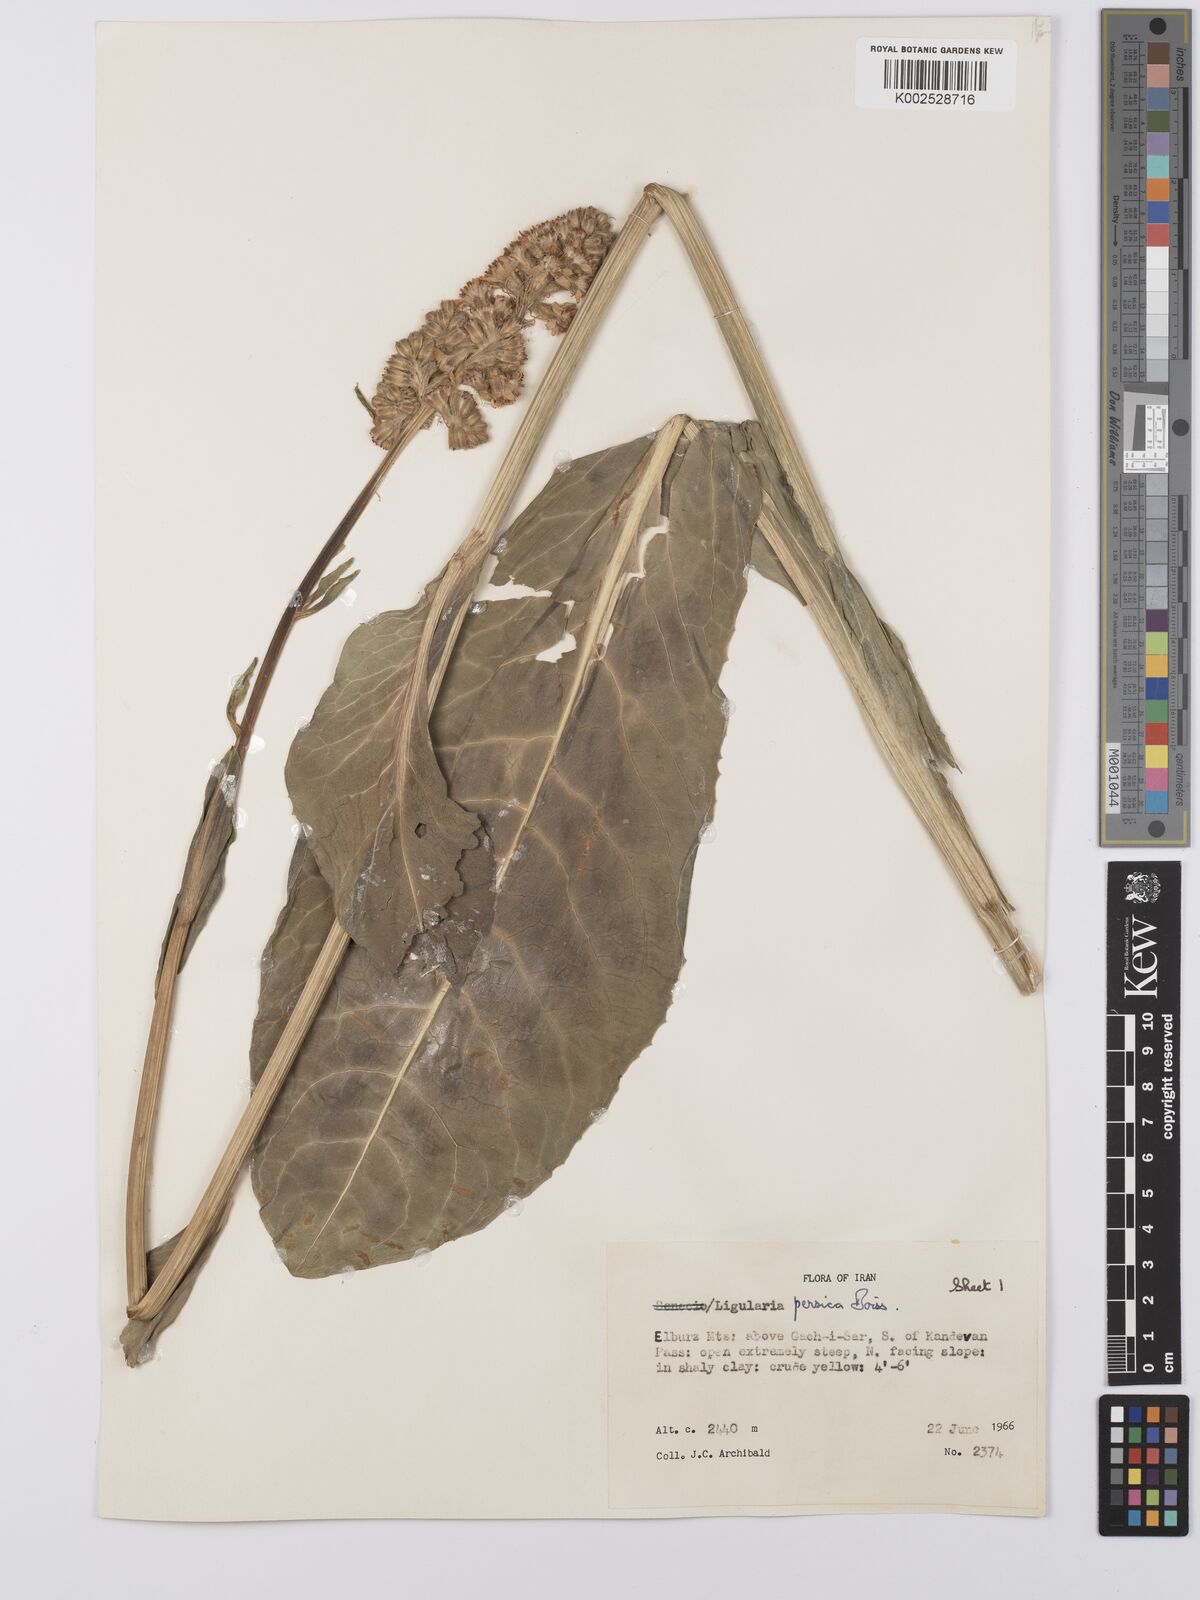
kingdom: Plantae
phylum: Tracheophyta
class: Magnoliopsida
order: Asterales
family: Asteraceae
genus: Dolichorrhiza
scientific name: Dolichorrhiza persica
